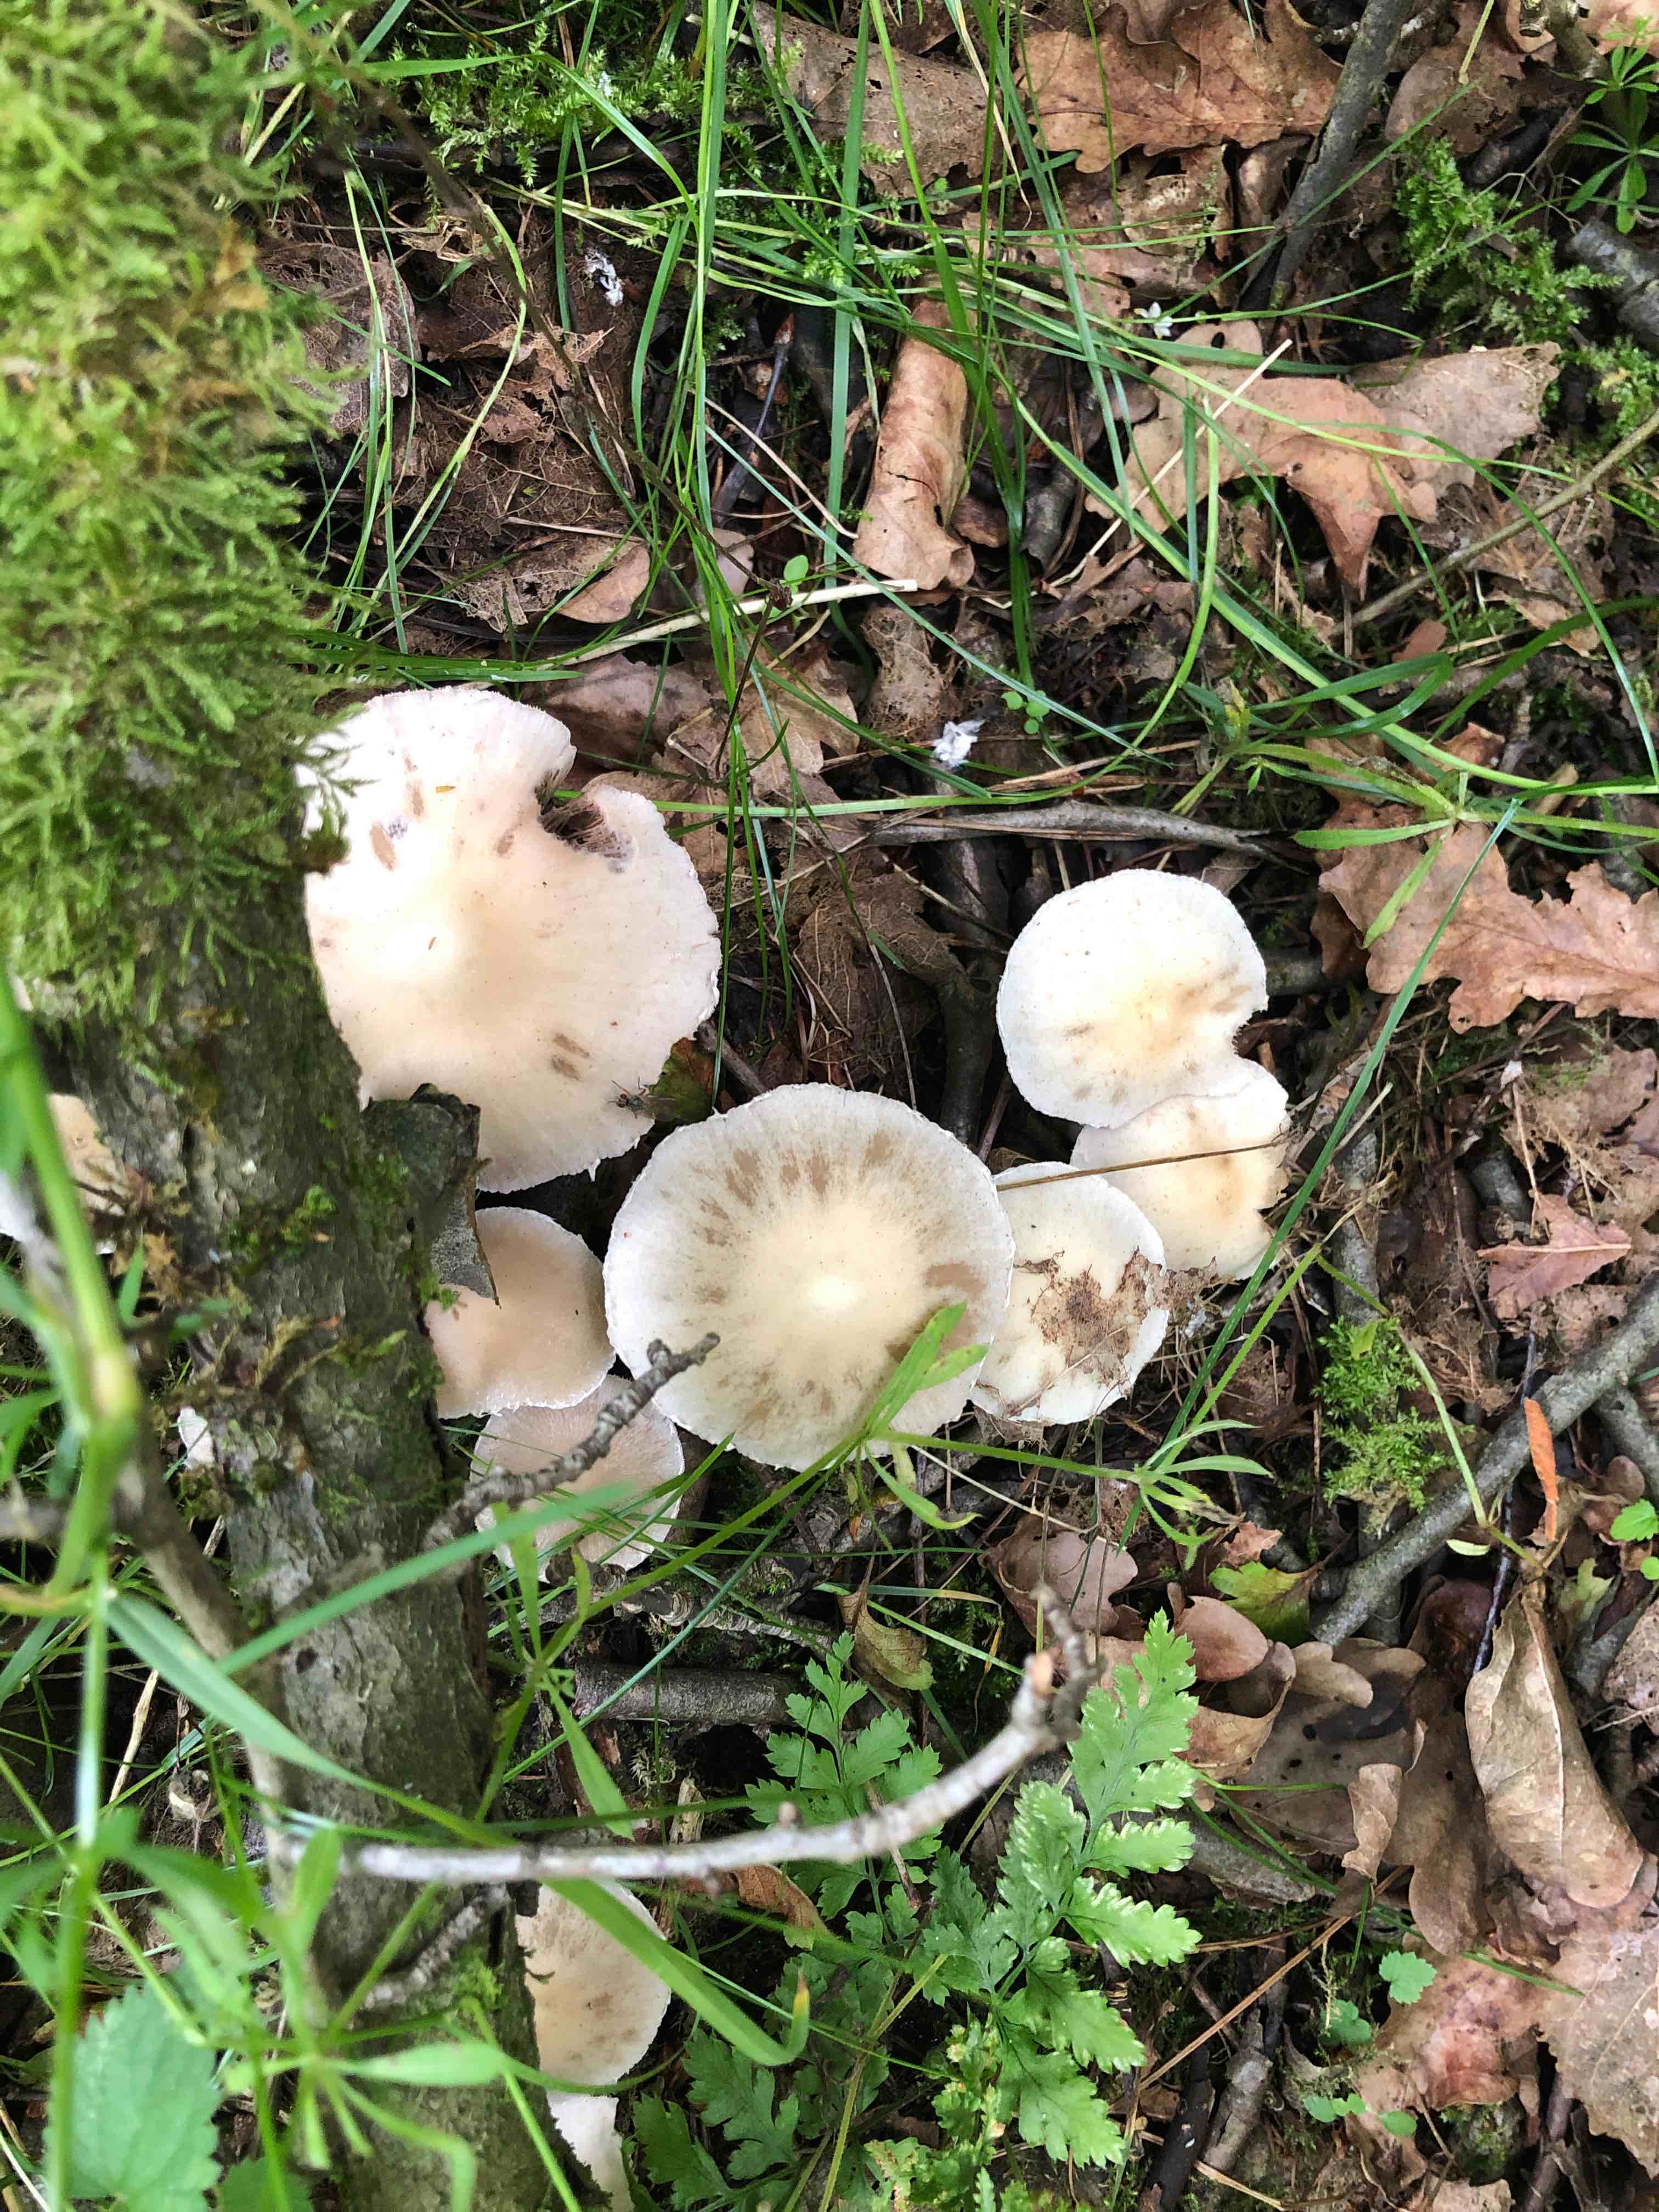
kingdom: Fungi
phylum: Basidiomycota
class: Agaricomycetes
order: Agaricales
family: Psathyrellaceae
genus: Candolleomyces
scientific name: Candolleomyces candolleanus
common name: Candolles mørkhat
